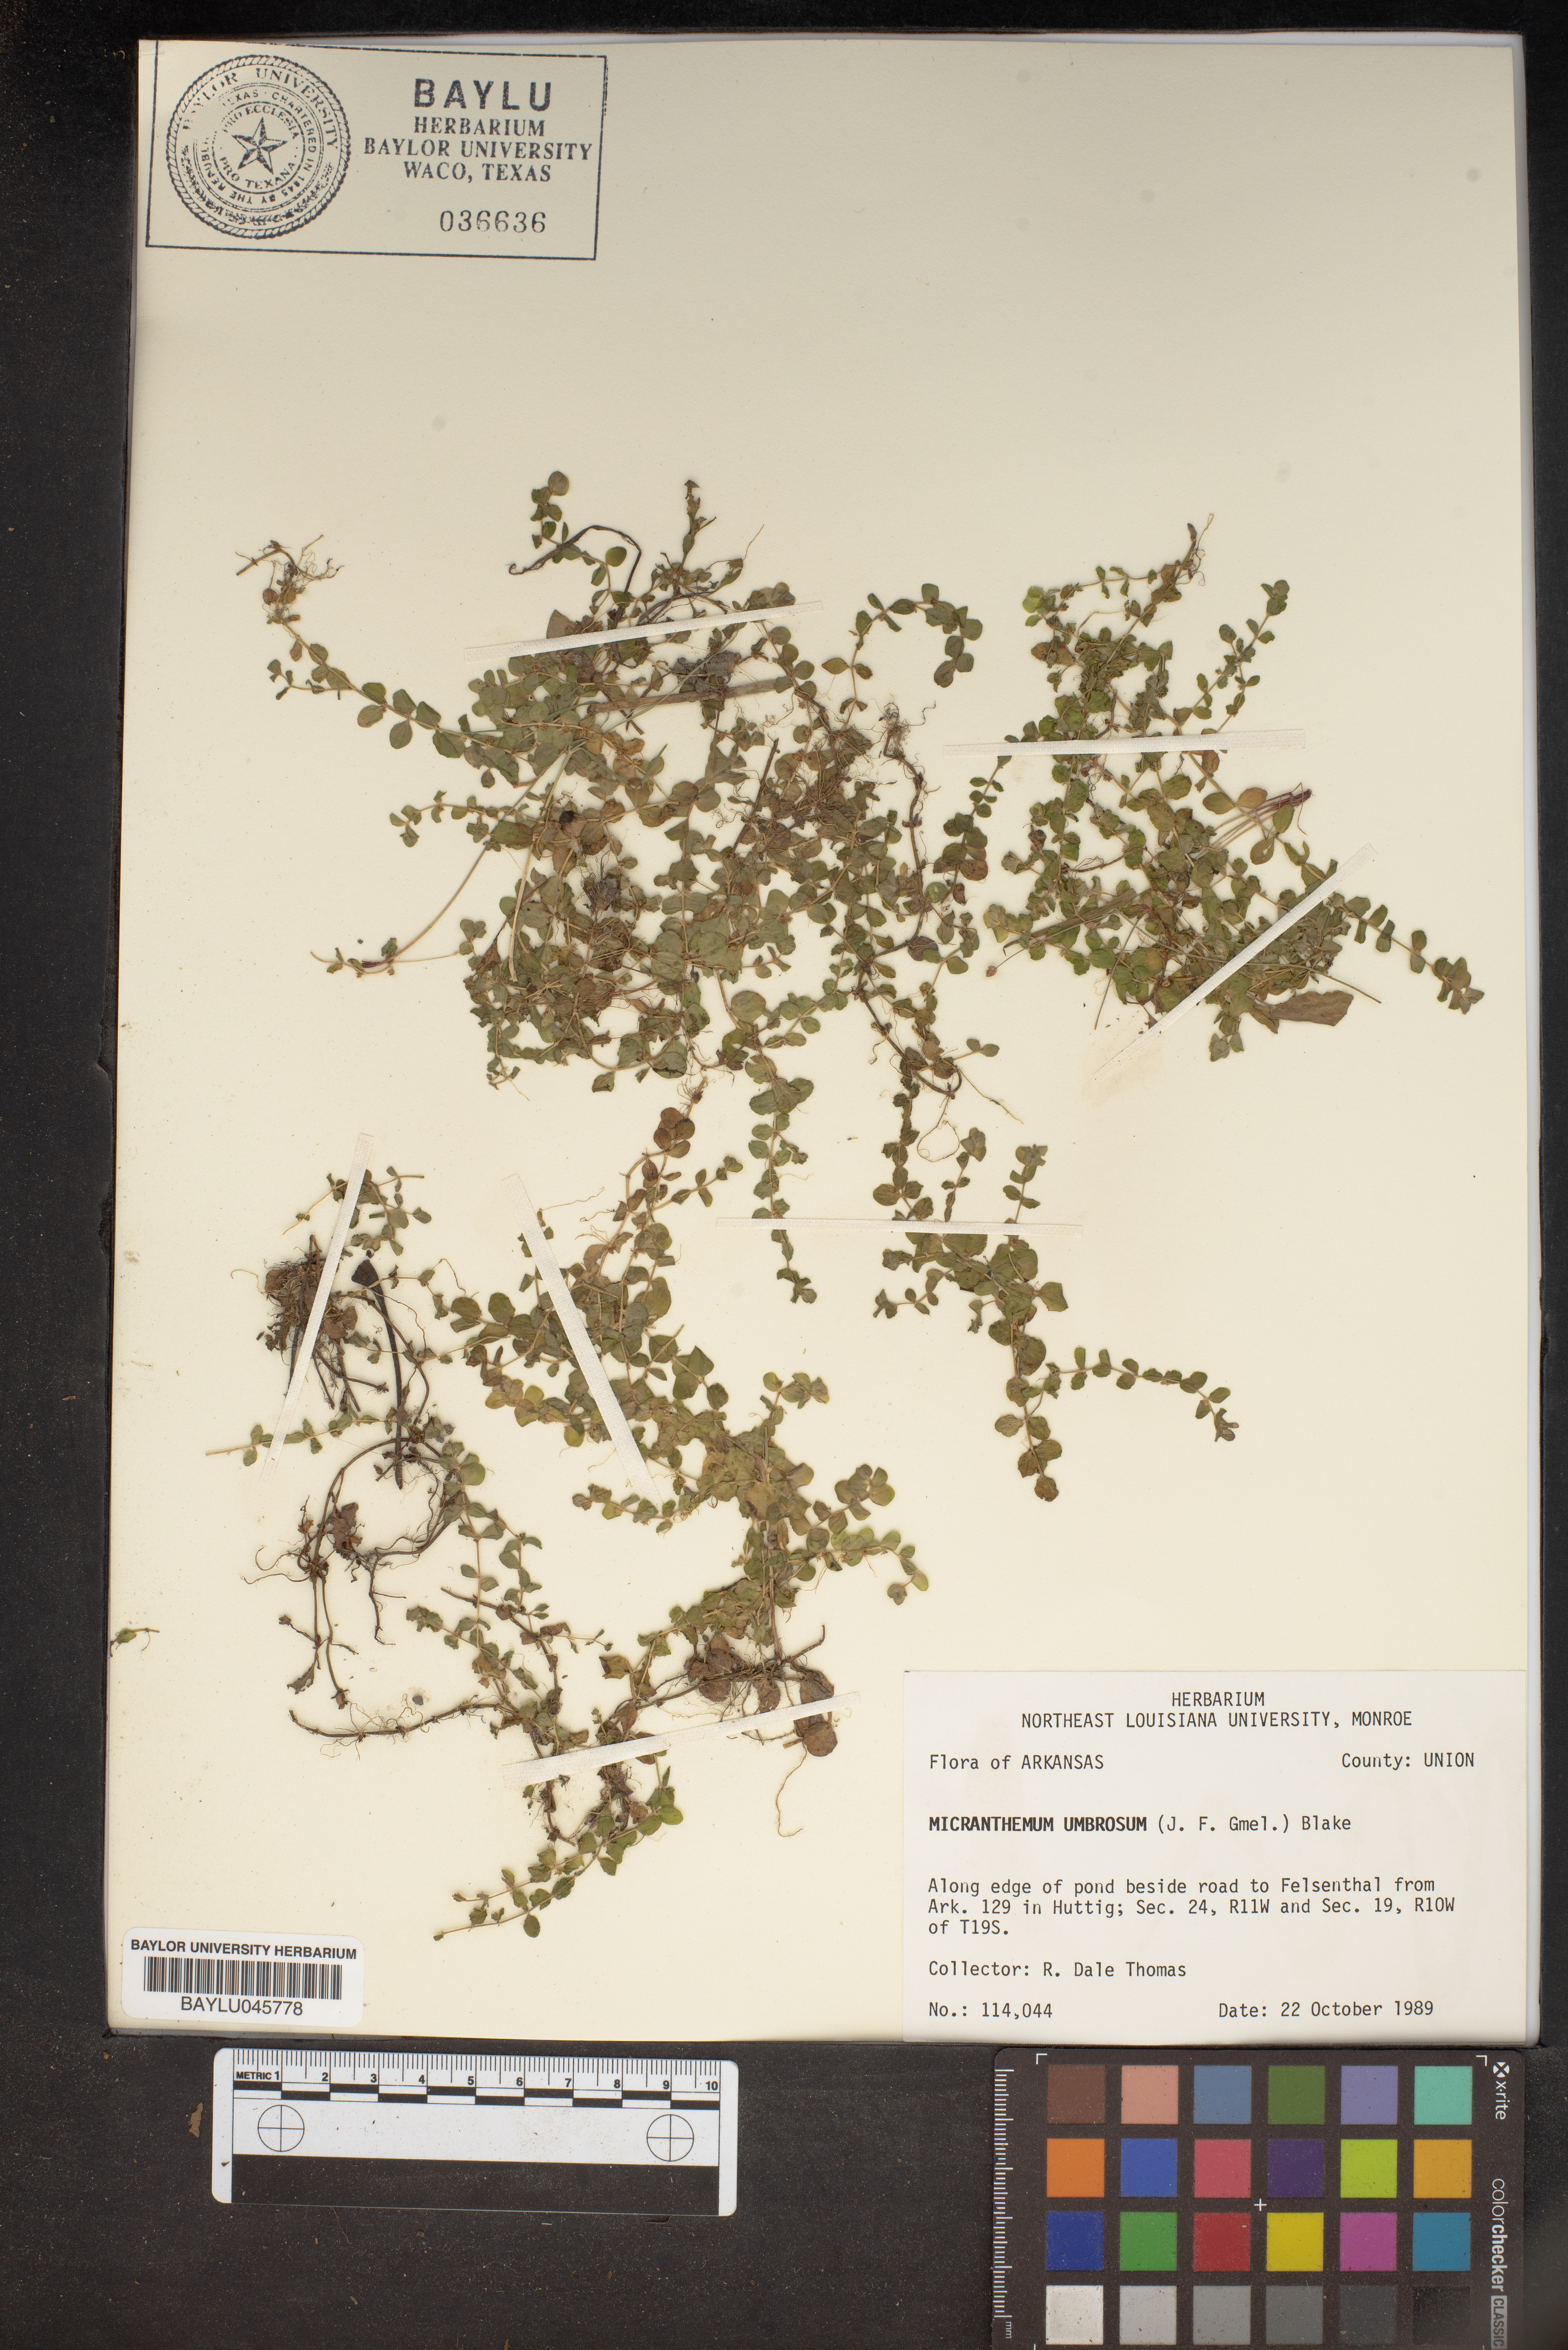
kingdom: Plantae
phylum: Tracheophyta
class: Magnoliopsida
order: Lamiales
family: Linderniaceae
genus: Micranthemum
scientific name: Micranthemum umbrosum
